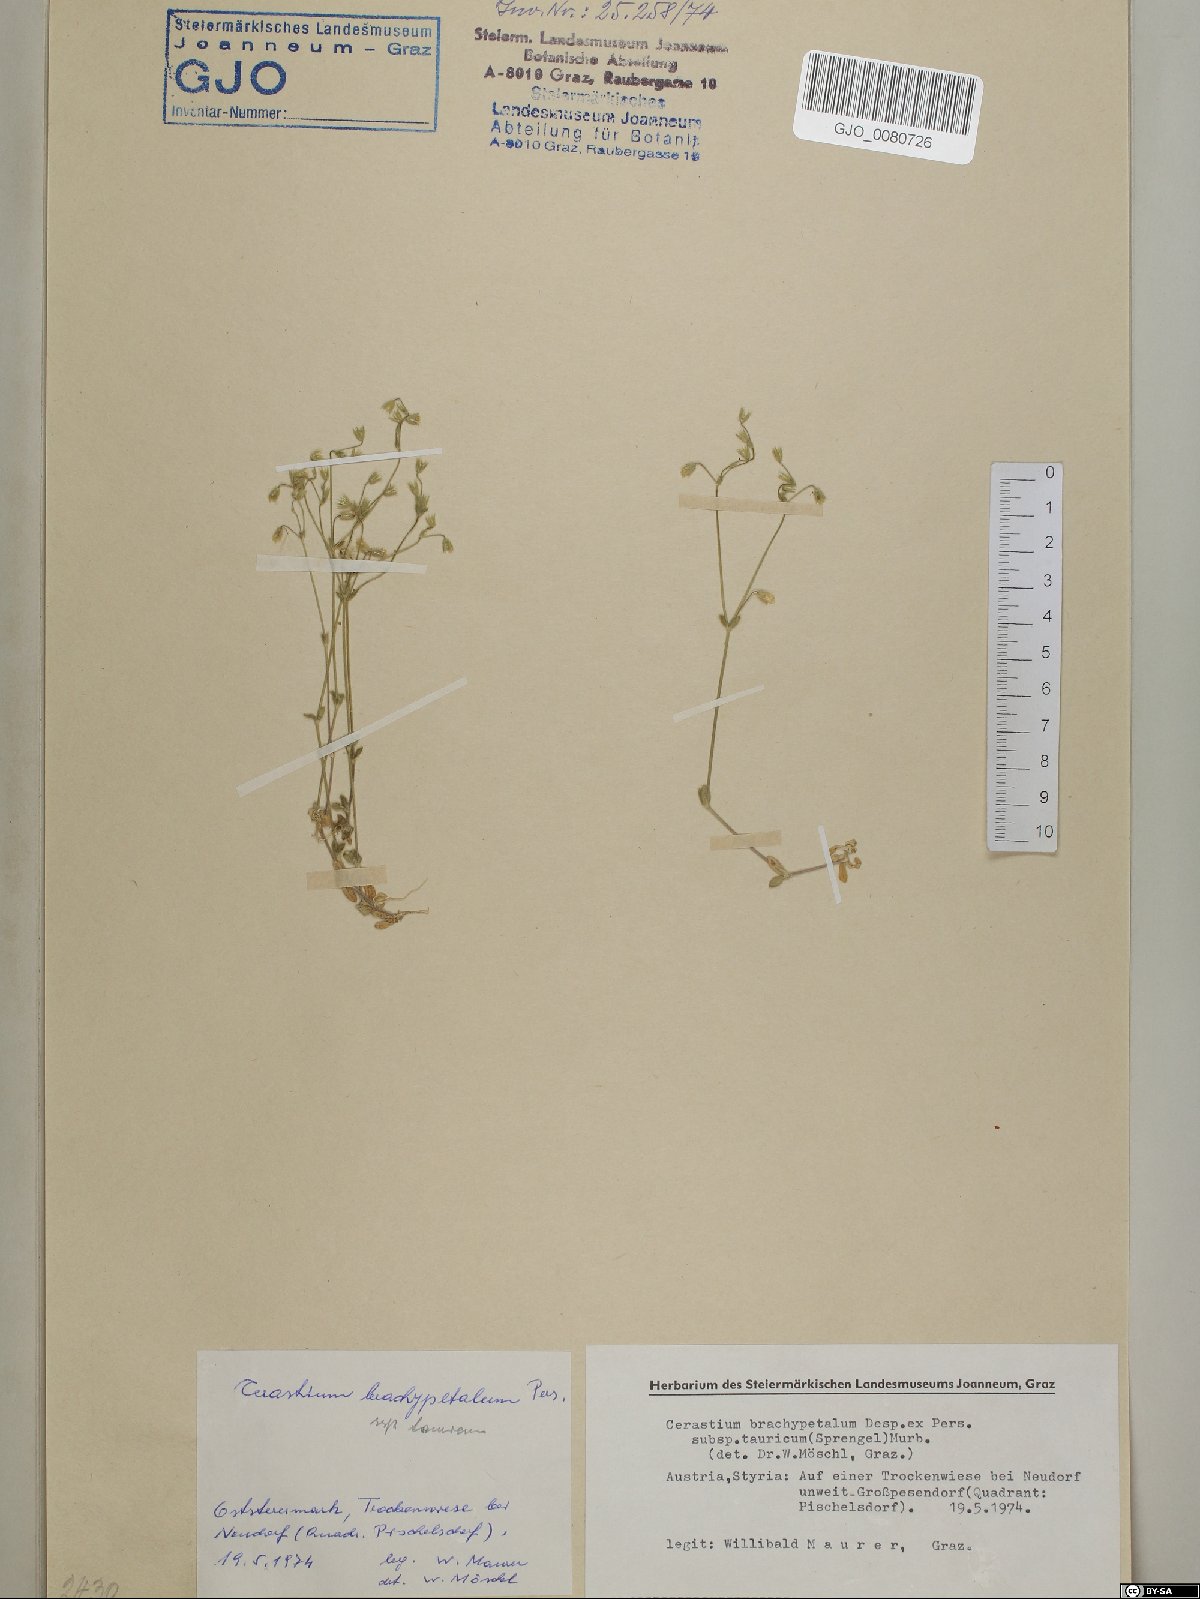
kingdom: Plantae
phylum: Tracheophyta
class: Magnoliopsida
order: Caryophyllales
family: Caryophyllaceae
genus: Cerastium
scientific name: Cerastium brachypetalum
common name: Grey mouse-ear
